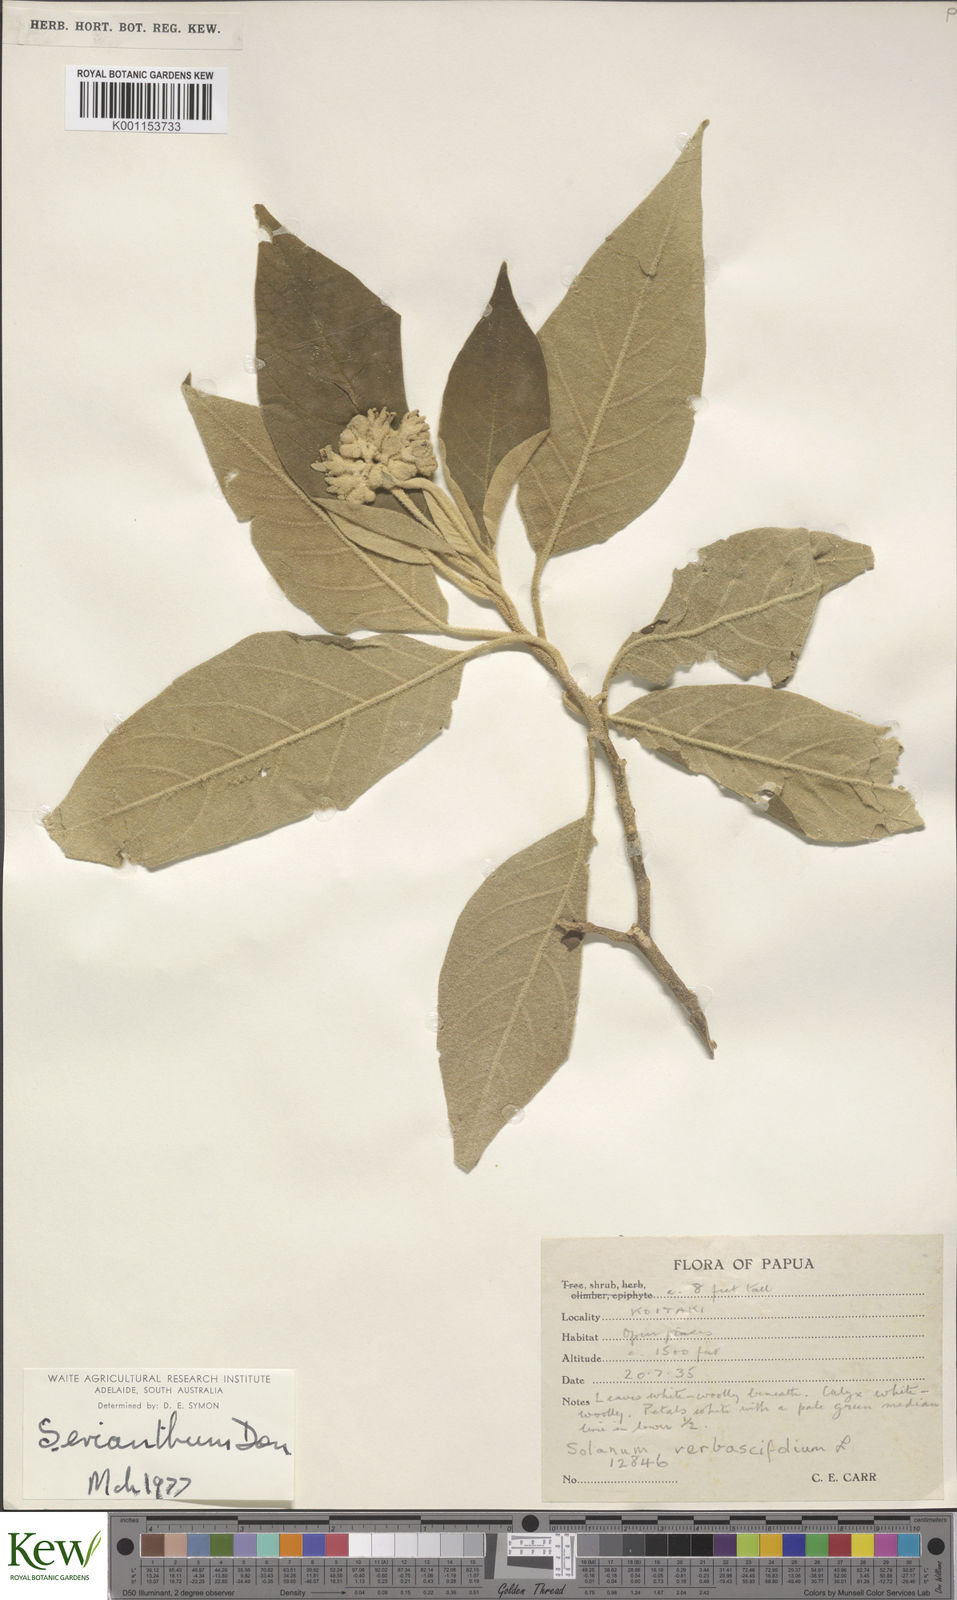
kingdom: Plantae
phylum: Tracheophyta
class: Magnoliopsida
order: Solanales
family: Solanaceae
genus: Solanum
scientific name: Solanum erianthum
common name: Tobacco-tree
